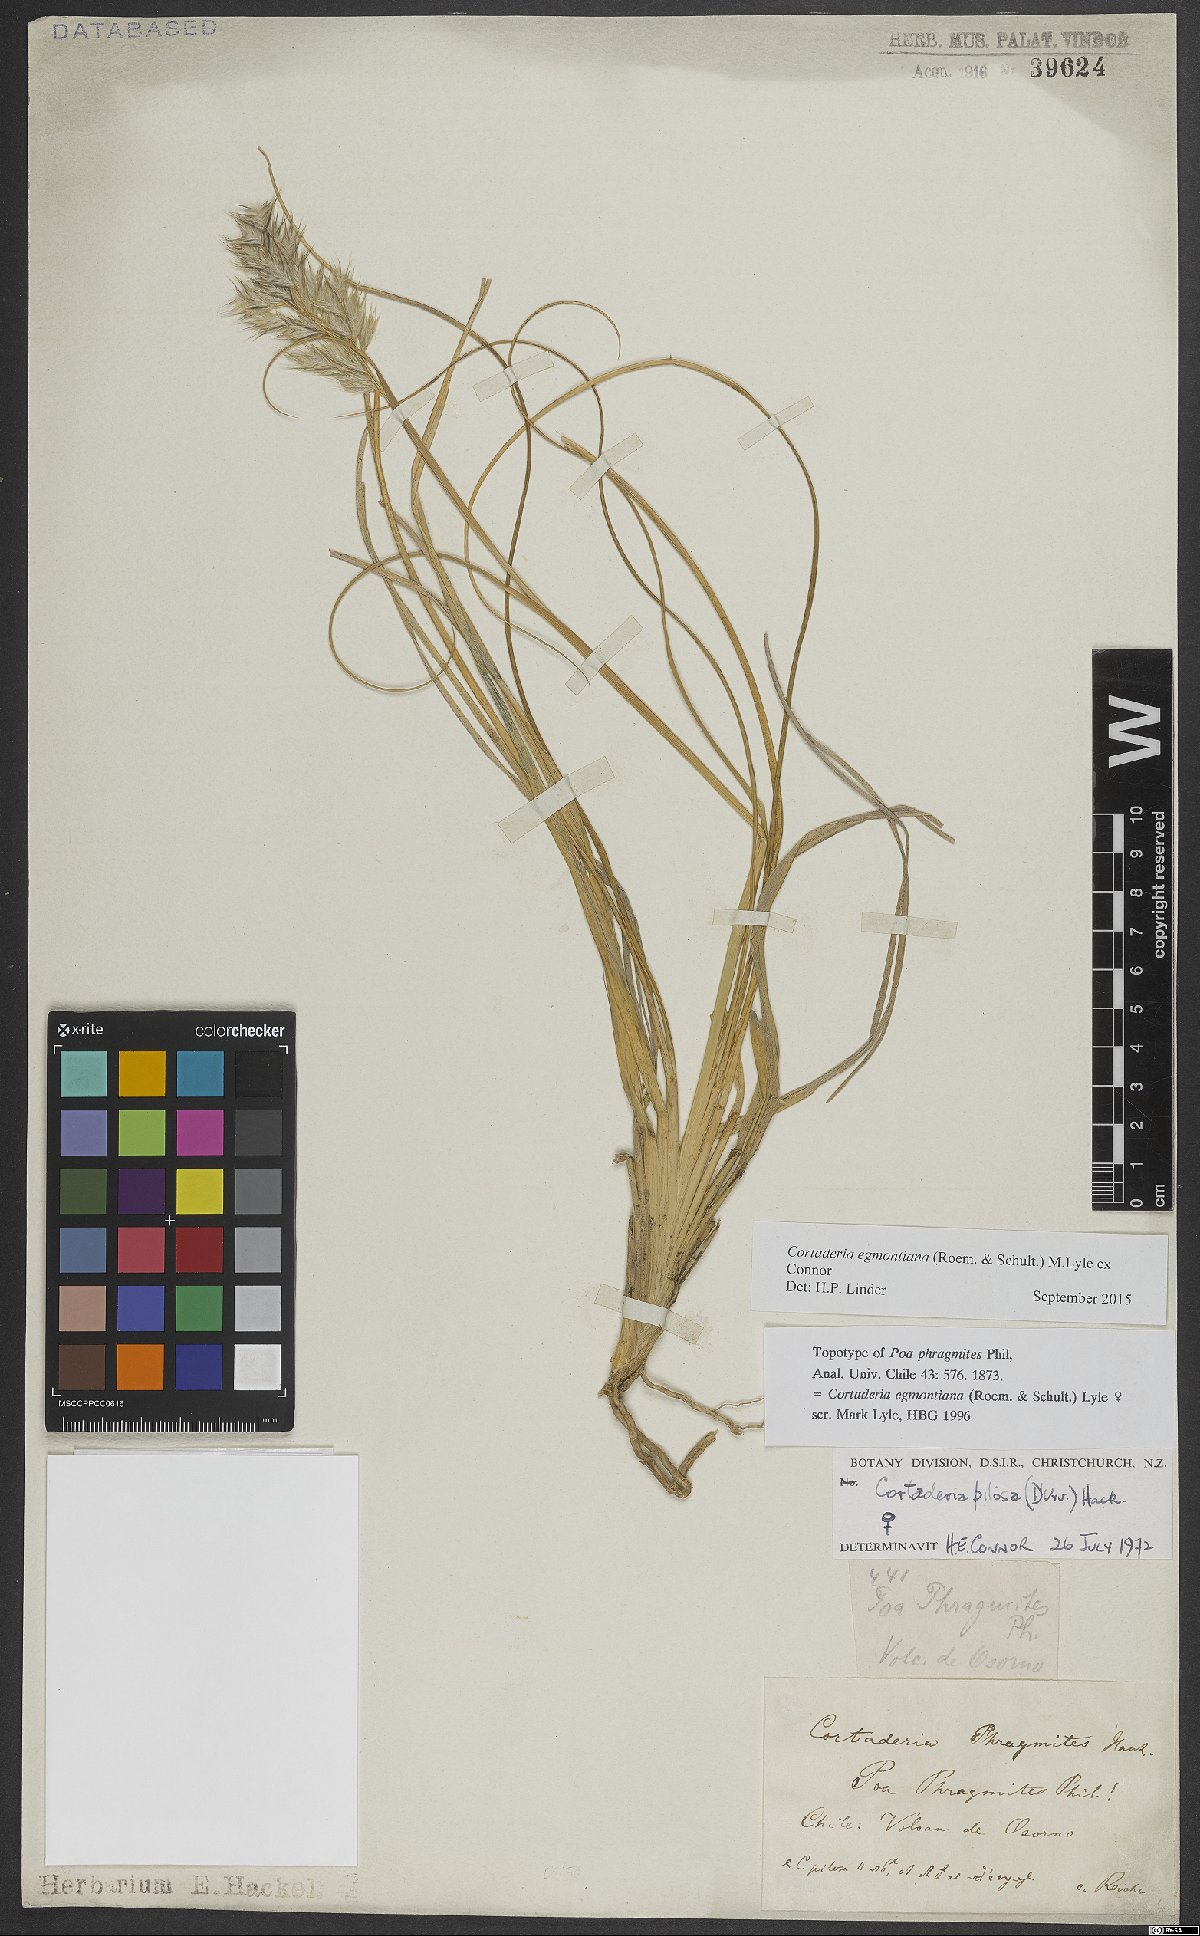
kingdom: Plantae
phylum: Tracheophyta
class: Liliopsida
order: Poales
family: Poaceae
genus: Cortaderia
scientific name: Cortaderia egmontiana
